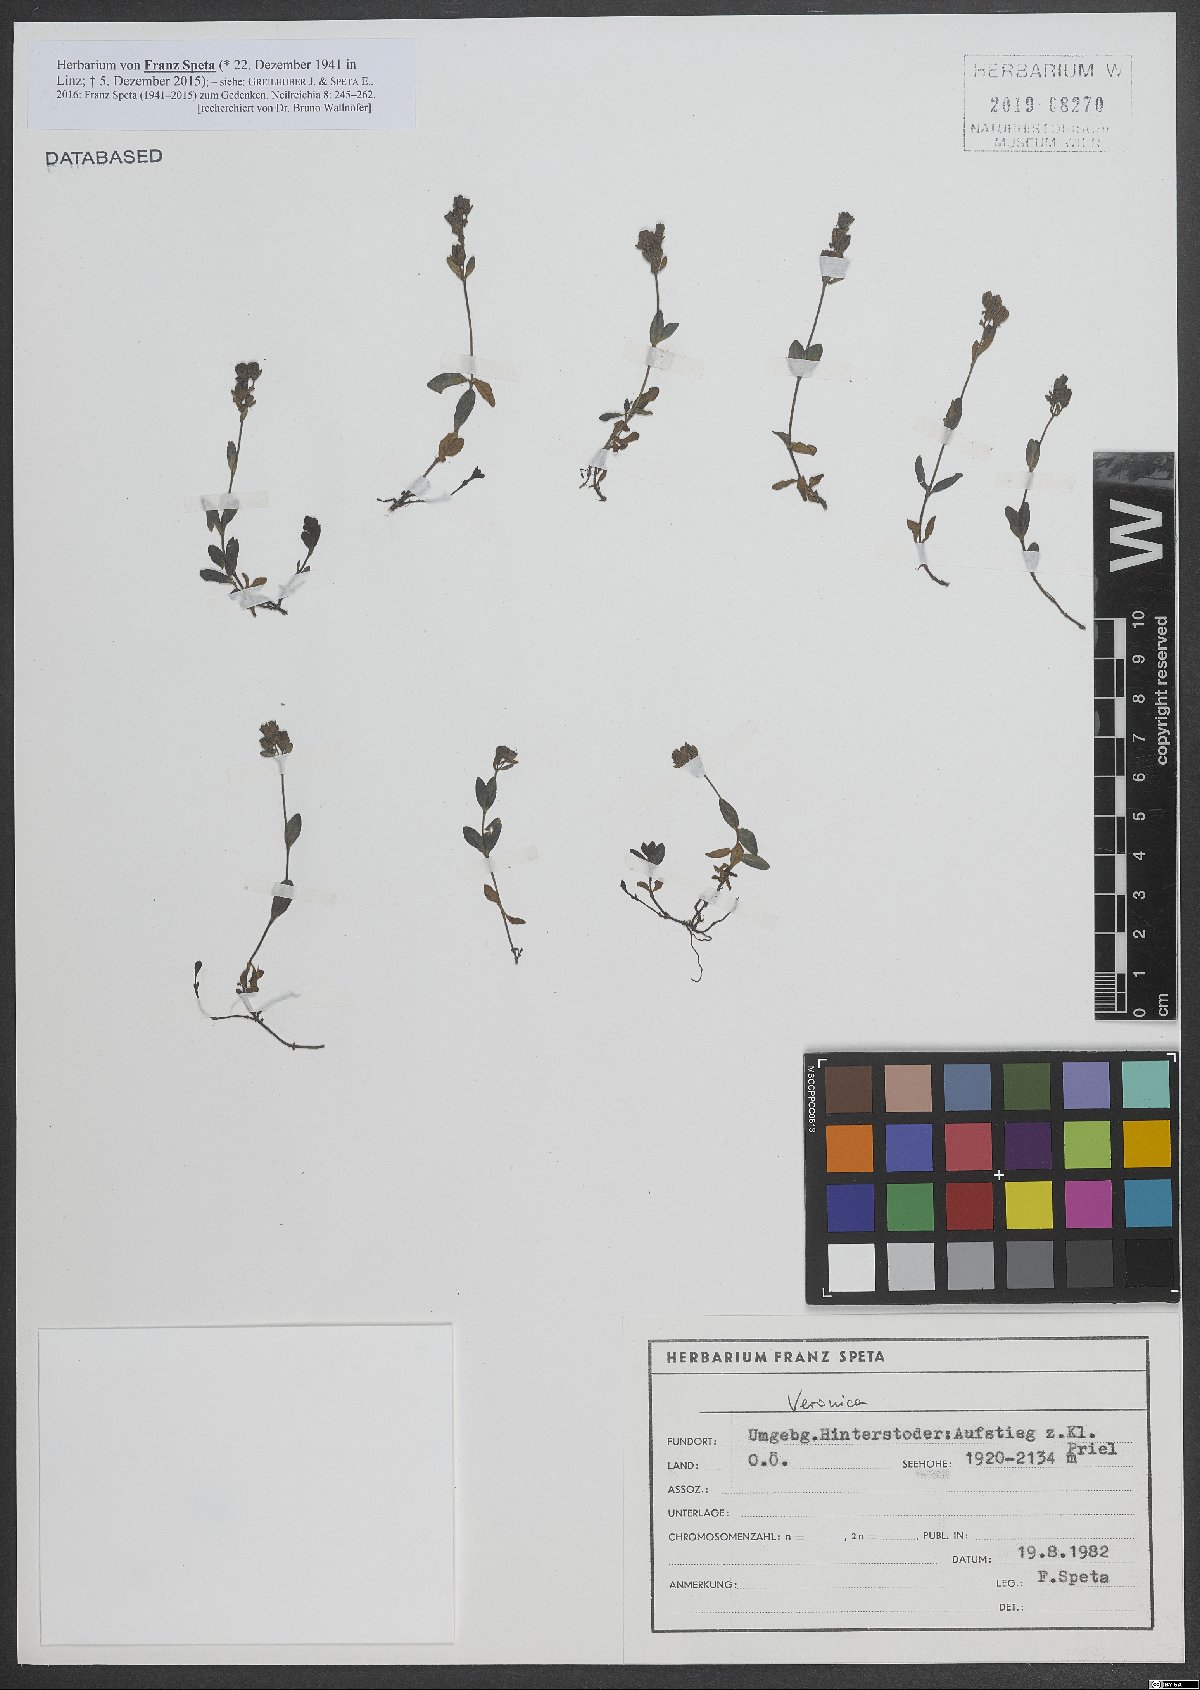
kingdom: Plantae
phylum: Tracheophyta
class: Magnoliopsida
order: Lamiales
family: Plantaginaceae
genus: Veronica
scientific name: Veronica
